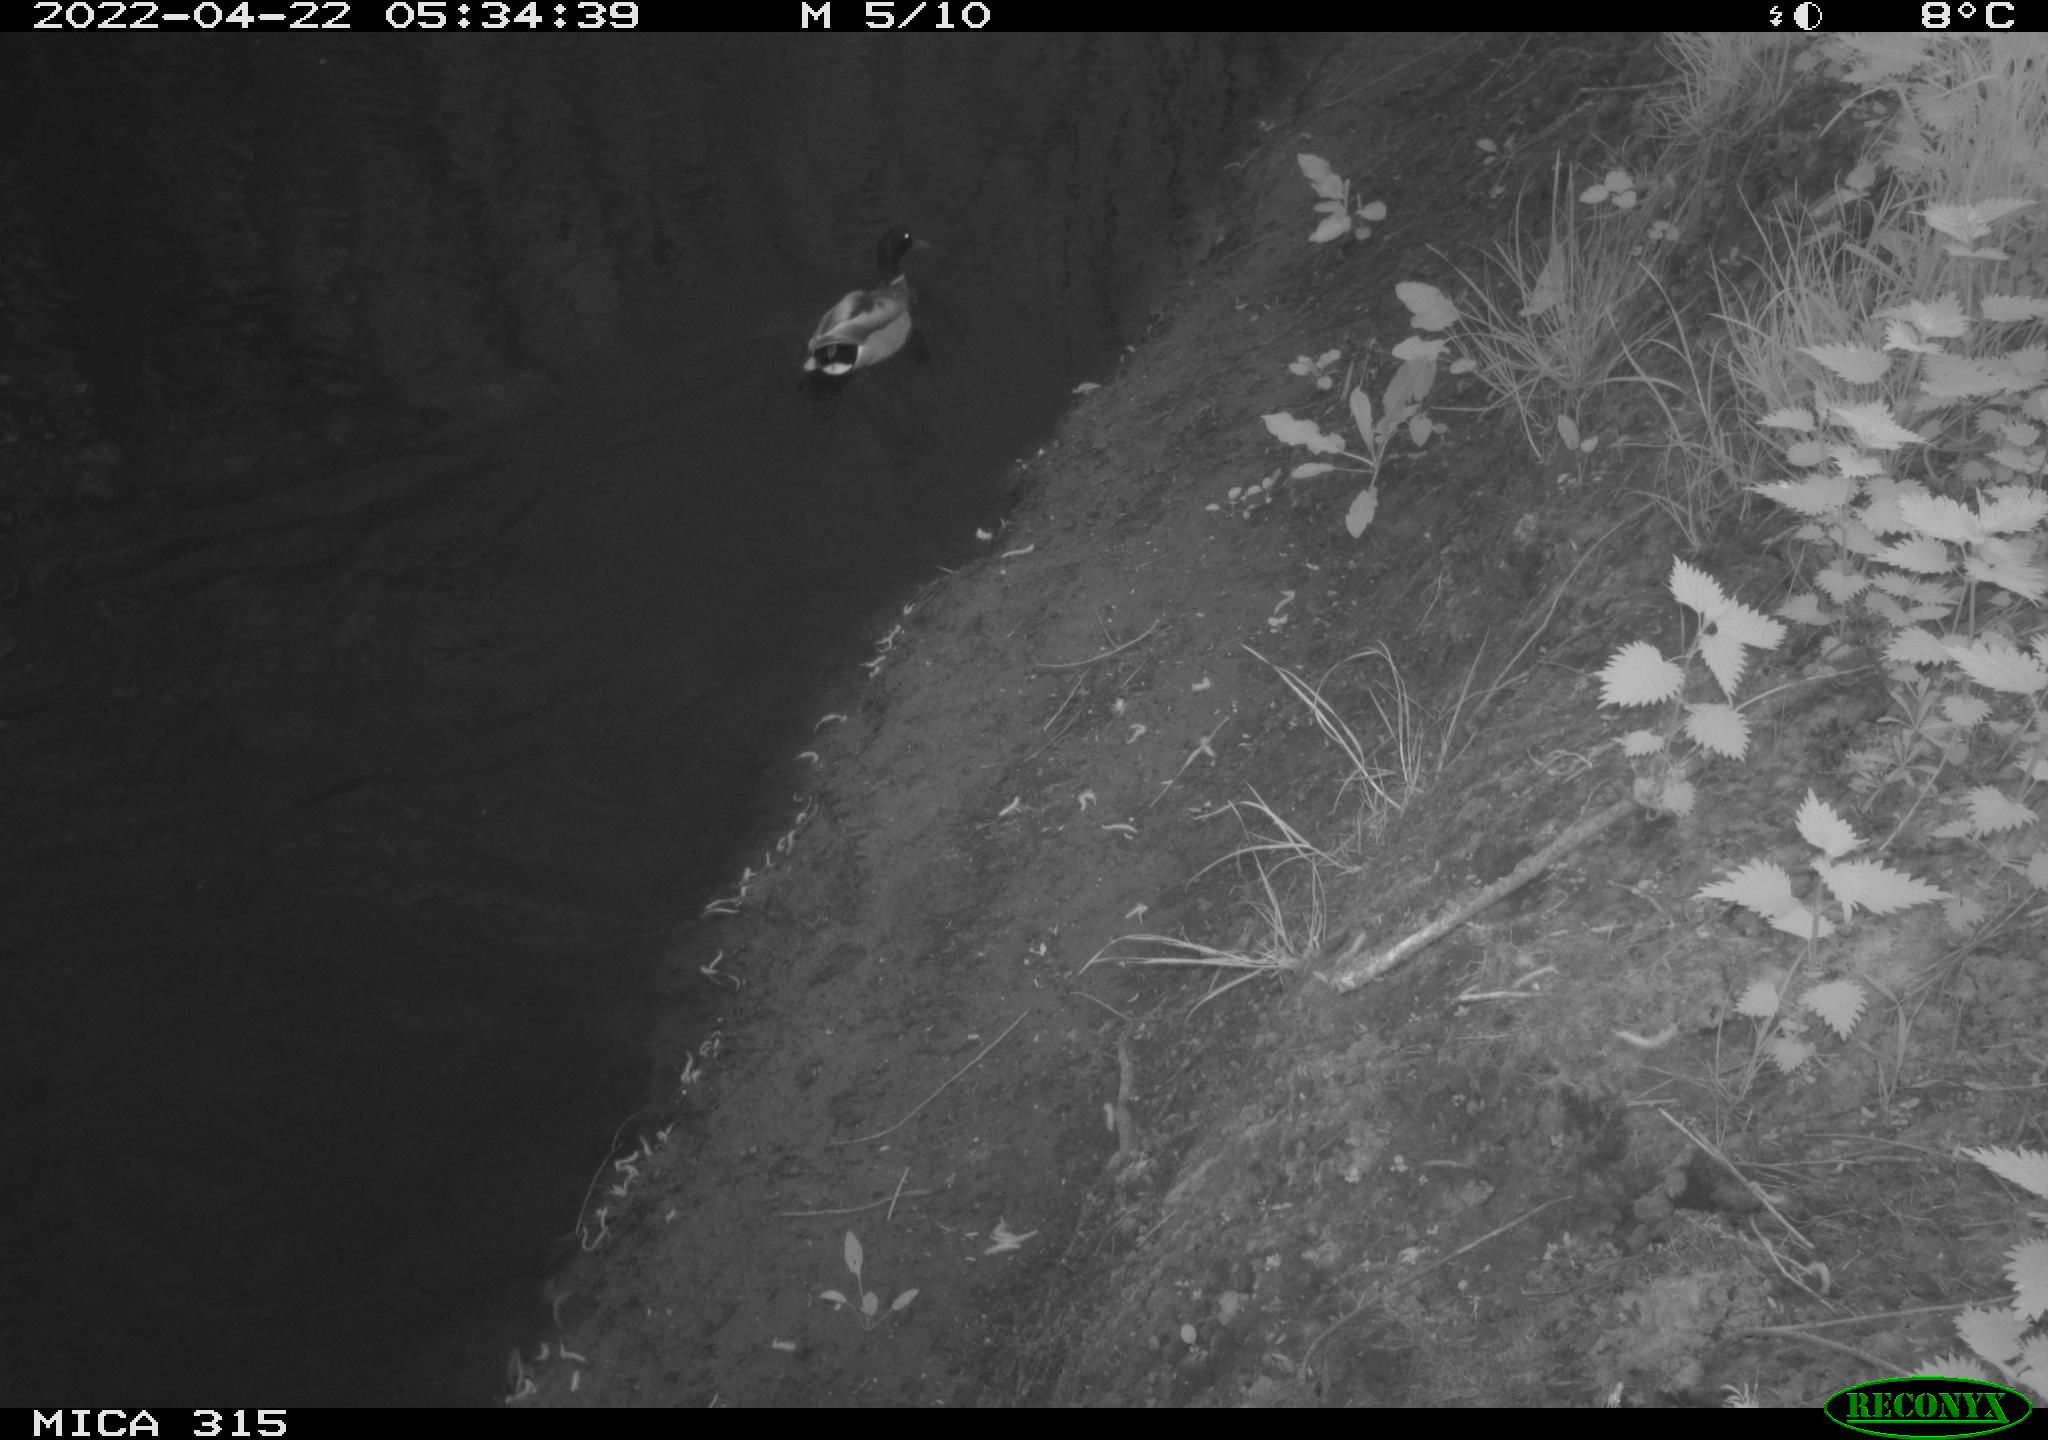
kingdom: Animalia
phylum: Chordata
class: Aves
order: Anseriformes
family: Anatidae
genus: Anas
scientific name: Anas platyrhynchos
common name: Mallard
